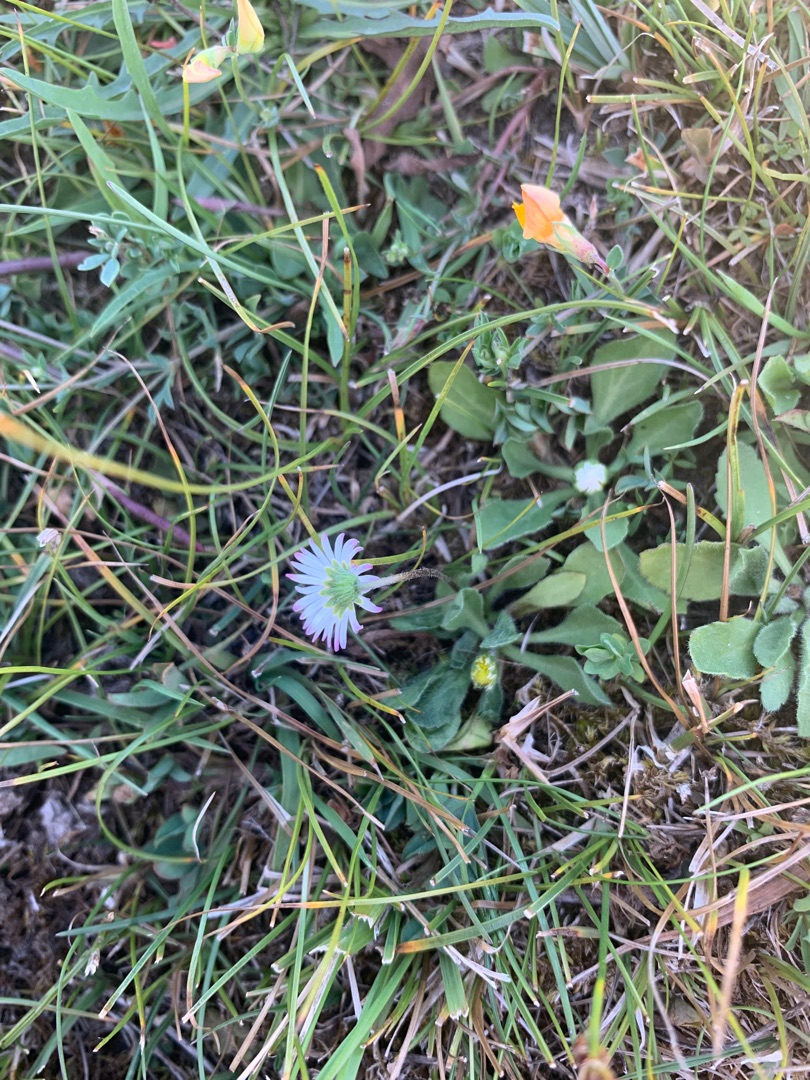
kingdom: Plantae
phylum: Tracheophyta
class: Magnoliopsida
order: Asterales
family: Asteraceae
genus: Bellis
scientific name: Bellis perennis
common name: Tusindfryd
